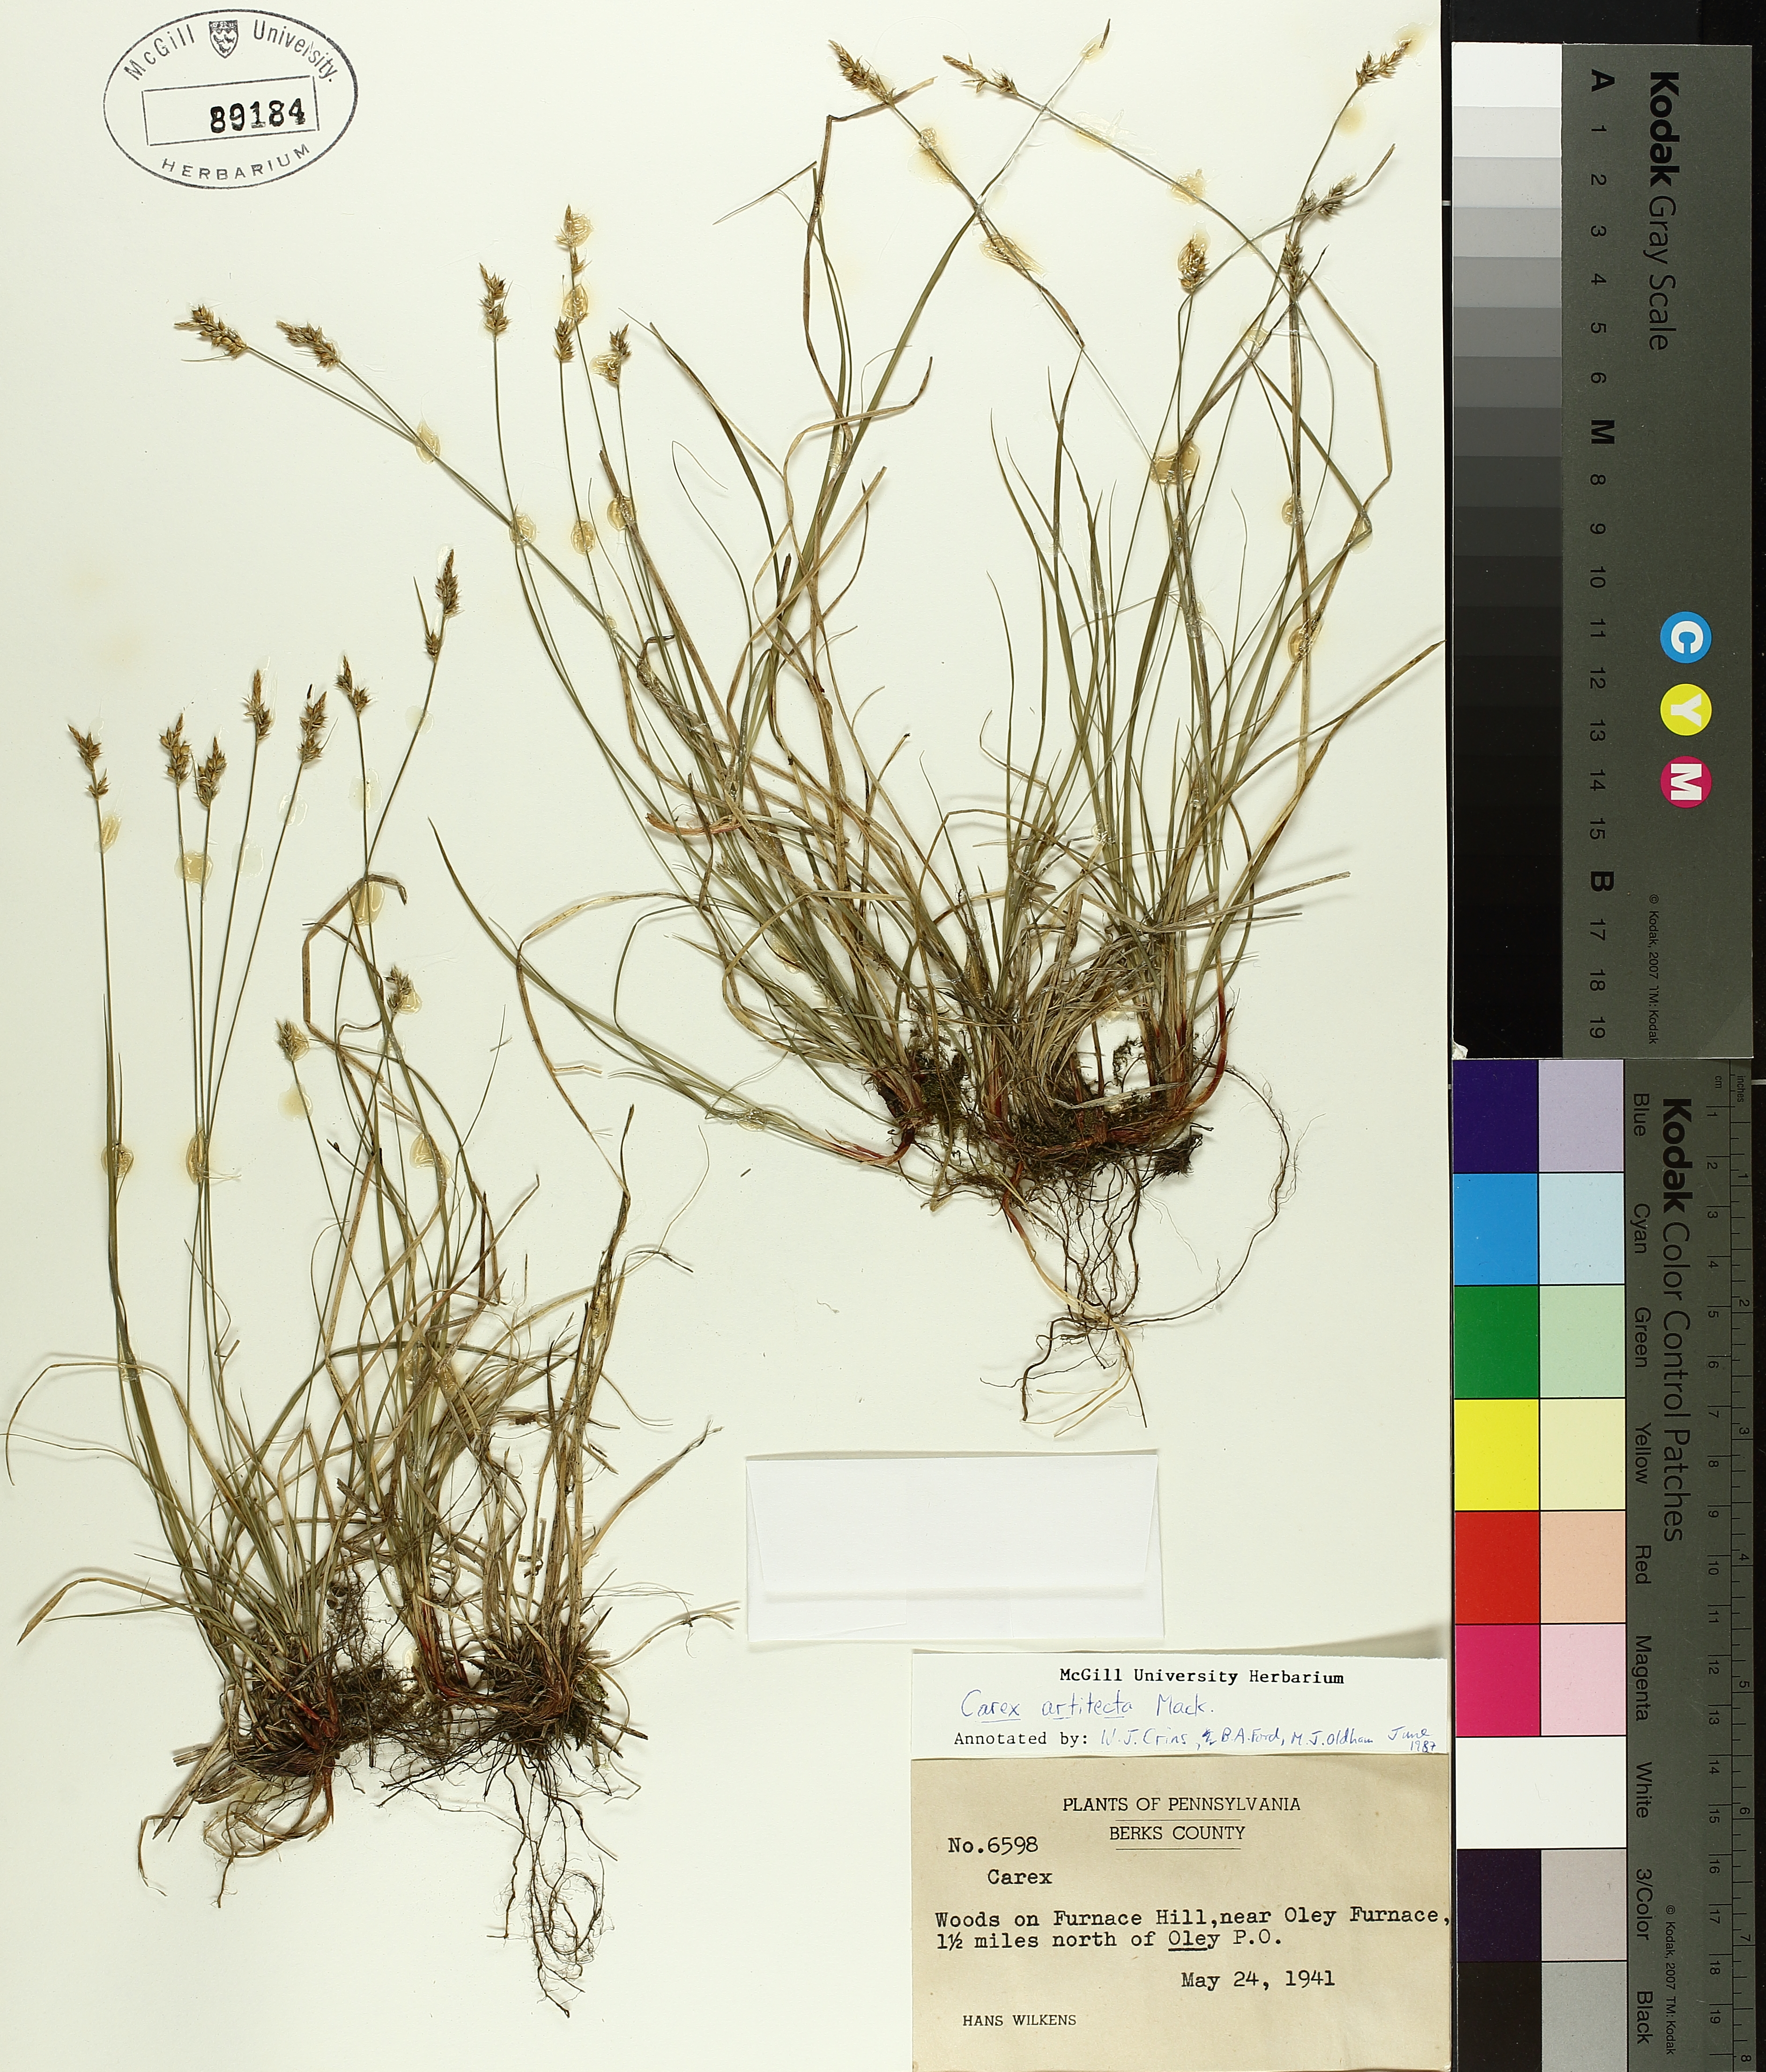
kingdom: Plantae
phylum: Tracheophyta
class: Liliopsida
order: Poales
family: Cyperaceae
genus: Carex
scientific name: Carex albicans
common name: Bellow-beaked sedge
